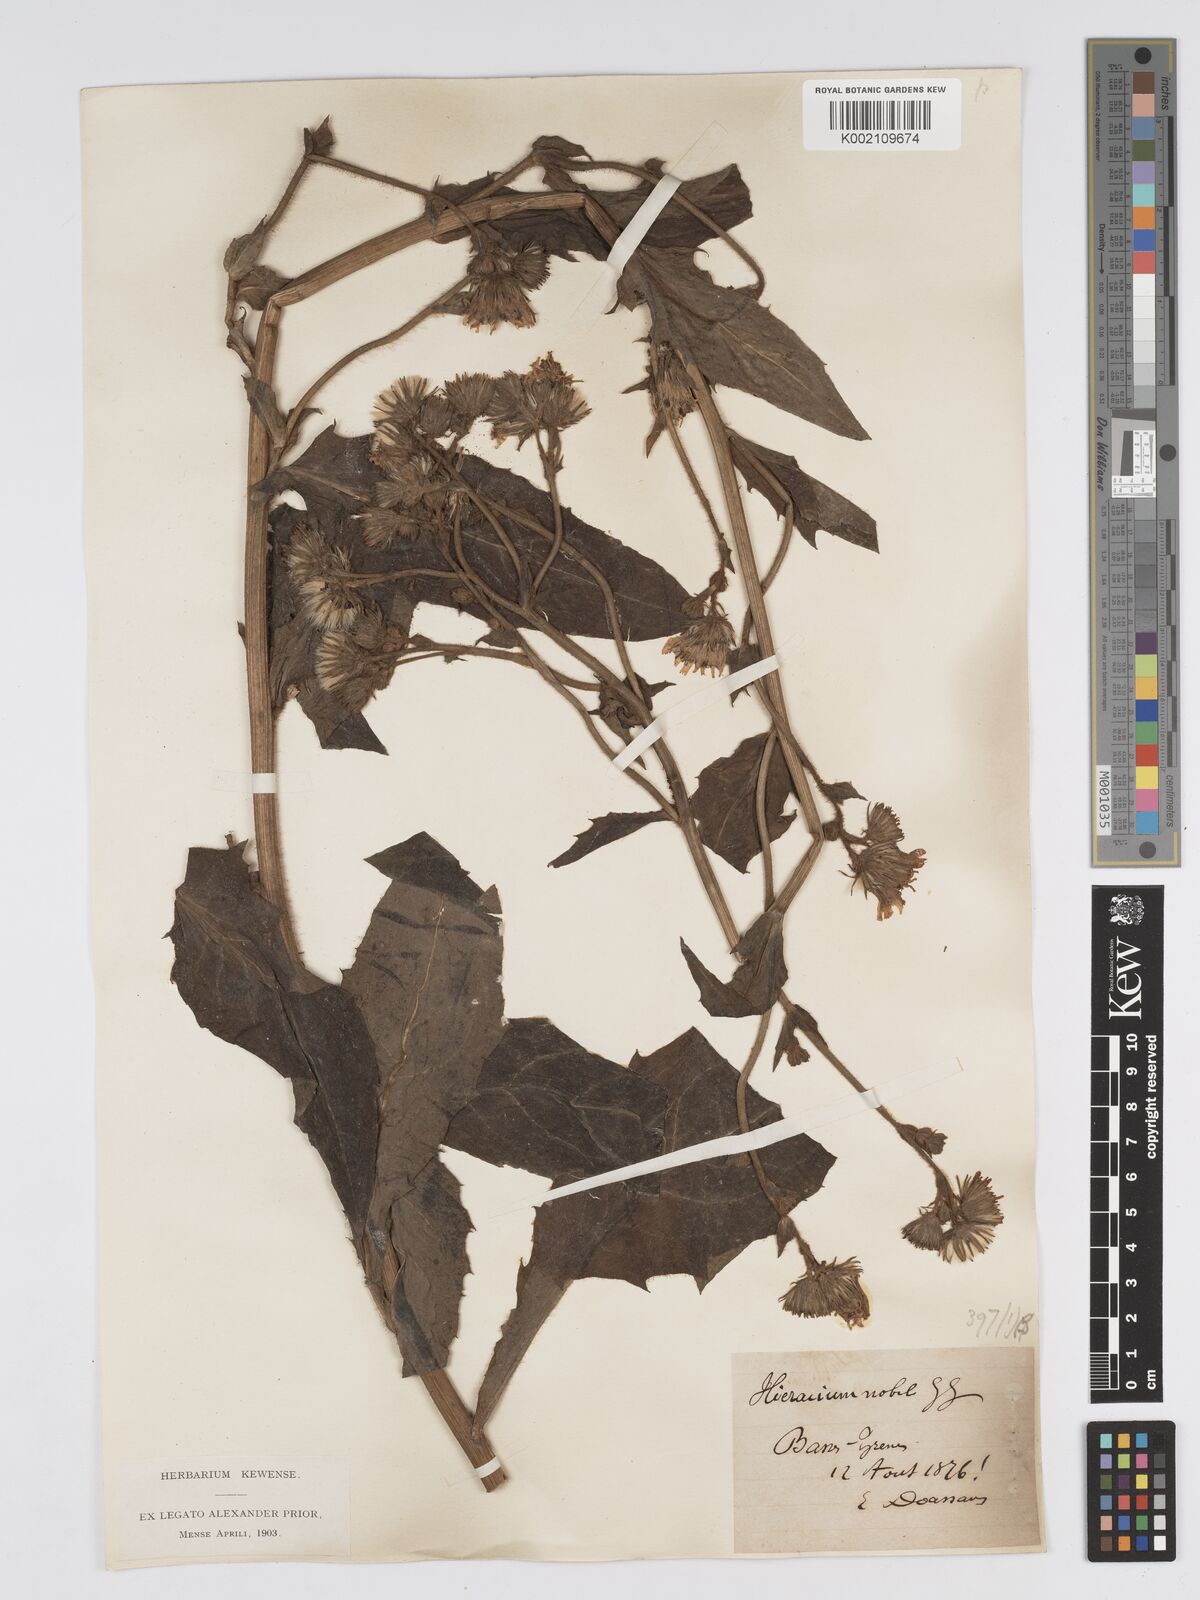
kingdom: Plantae
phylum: Tracheophyta
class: Magnoliopsida
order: Asterales
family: Asteraceae
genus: Hieracium
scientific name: Hieracium nobile
